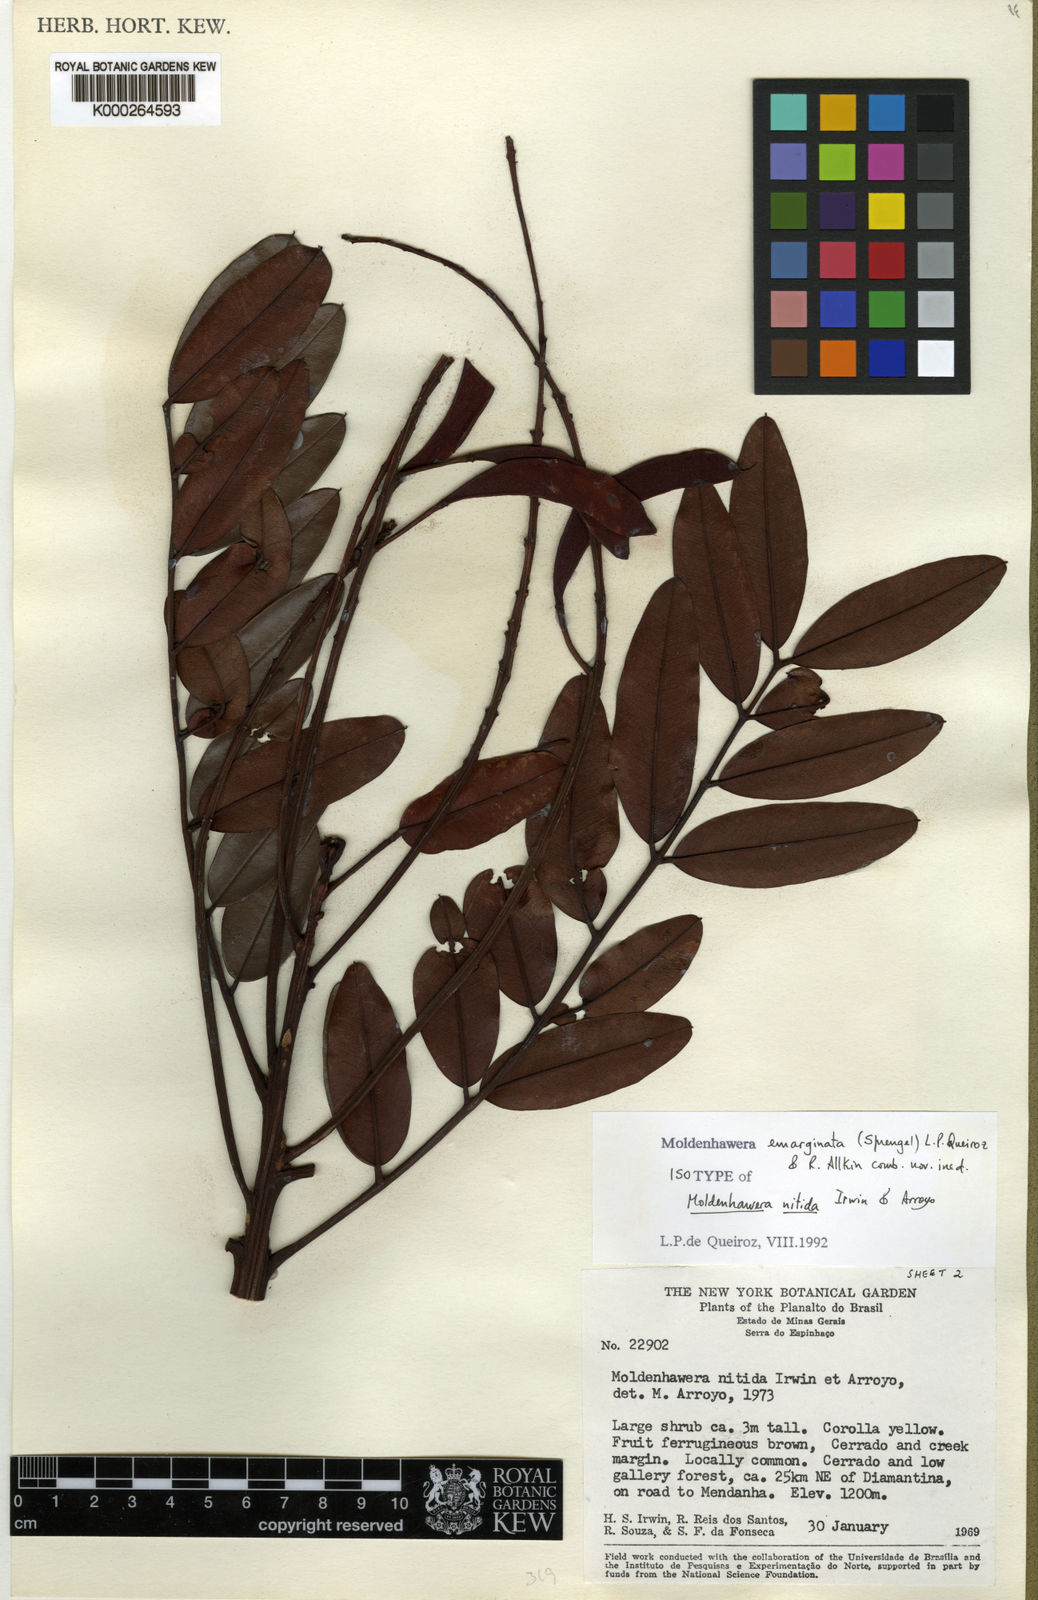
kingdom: Plantae
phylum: Tracheophyta
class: Magnoliopsida
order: Fabales
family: Fabaceae
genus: Moldenhawera
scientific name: Moldenhawera emarginata
